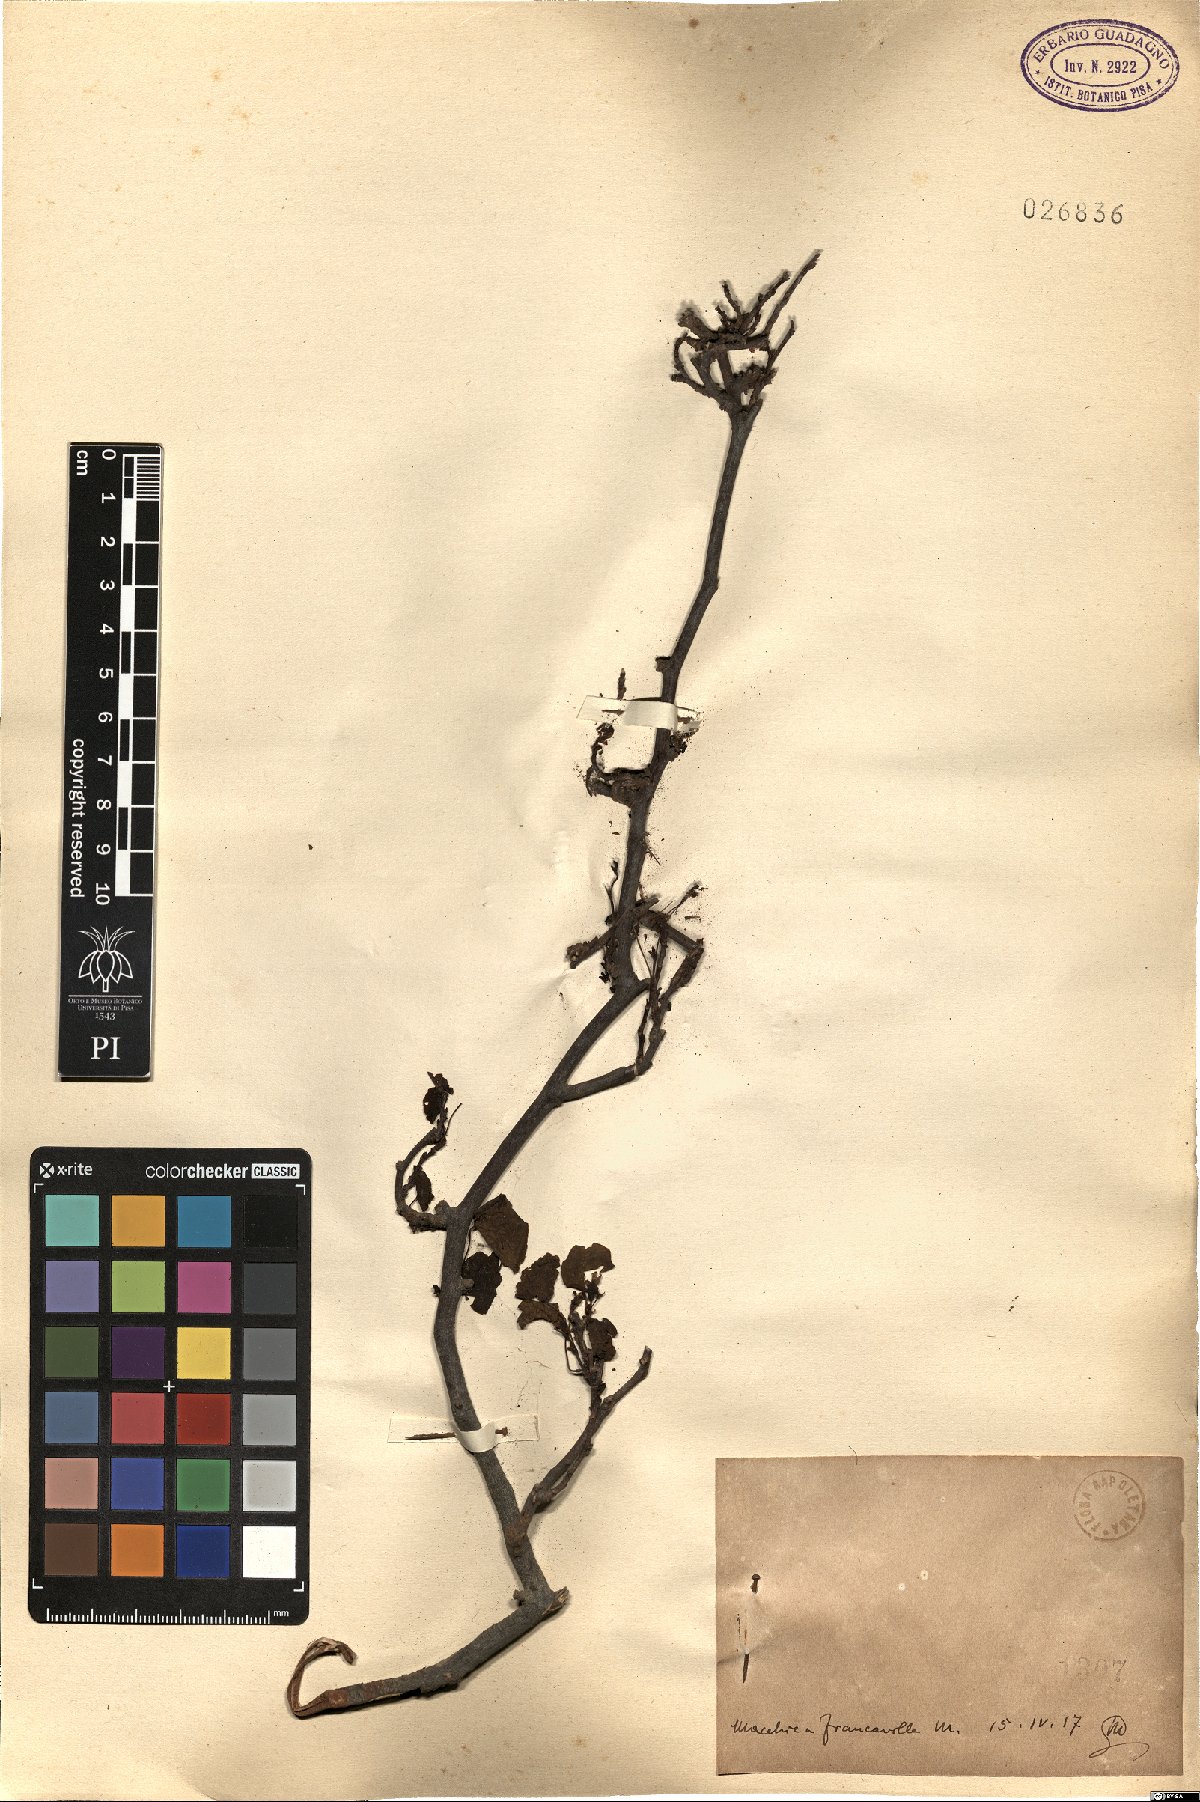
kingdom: Plantae
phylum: Tracheophyta
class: Magnoliopsida
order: Fabales
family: Fabaceae
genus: Cercis
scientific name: Cercis
